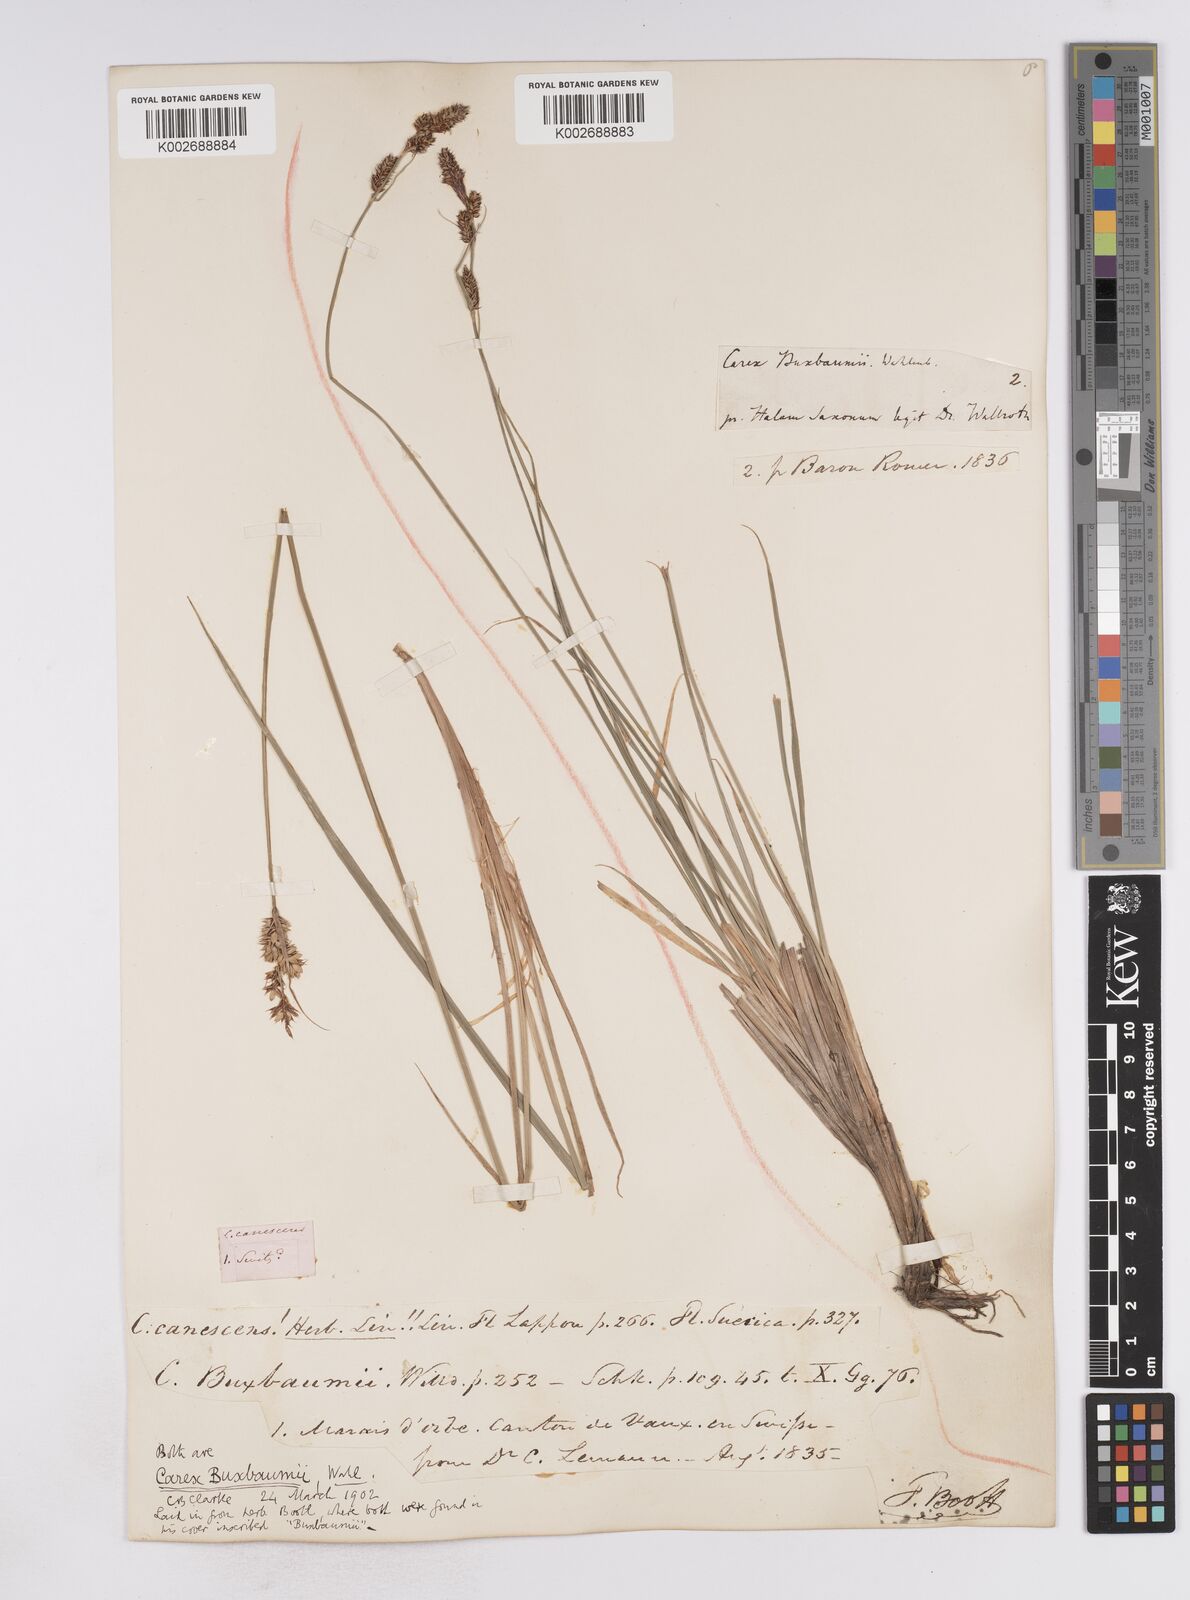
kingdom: Plantae
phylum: Tracheophyta
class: Liliopsida
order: Poales
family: Cyperaceae
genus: Carex
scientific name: Carex buxbaumii
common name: Club sedge
